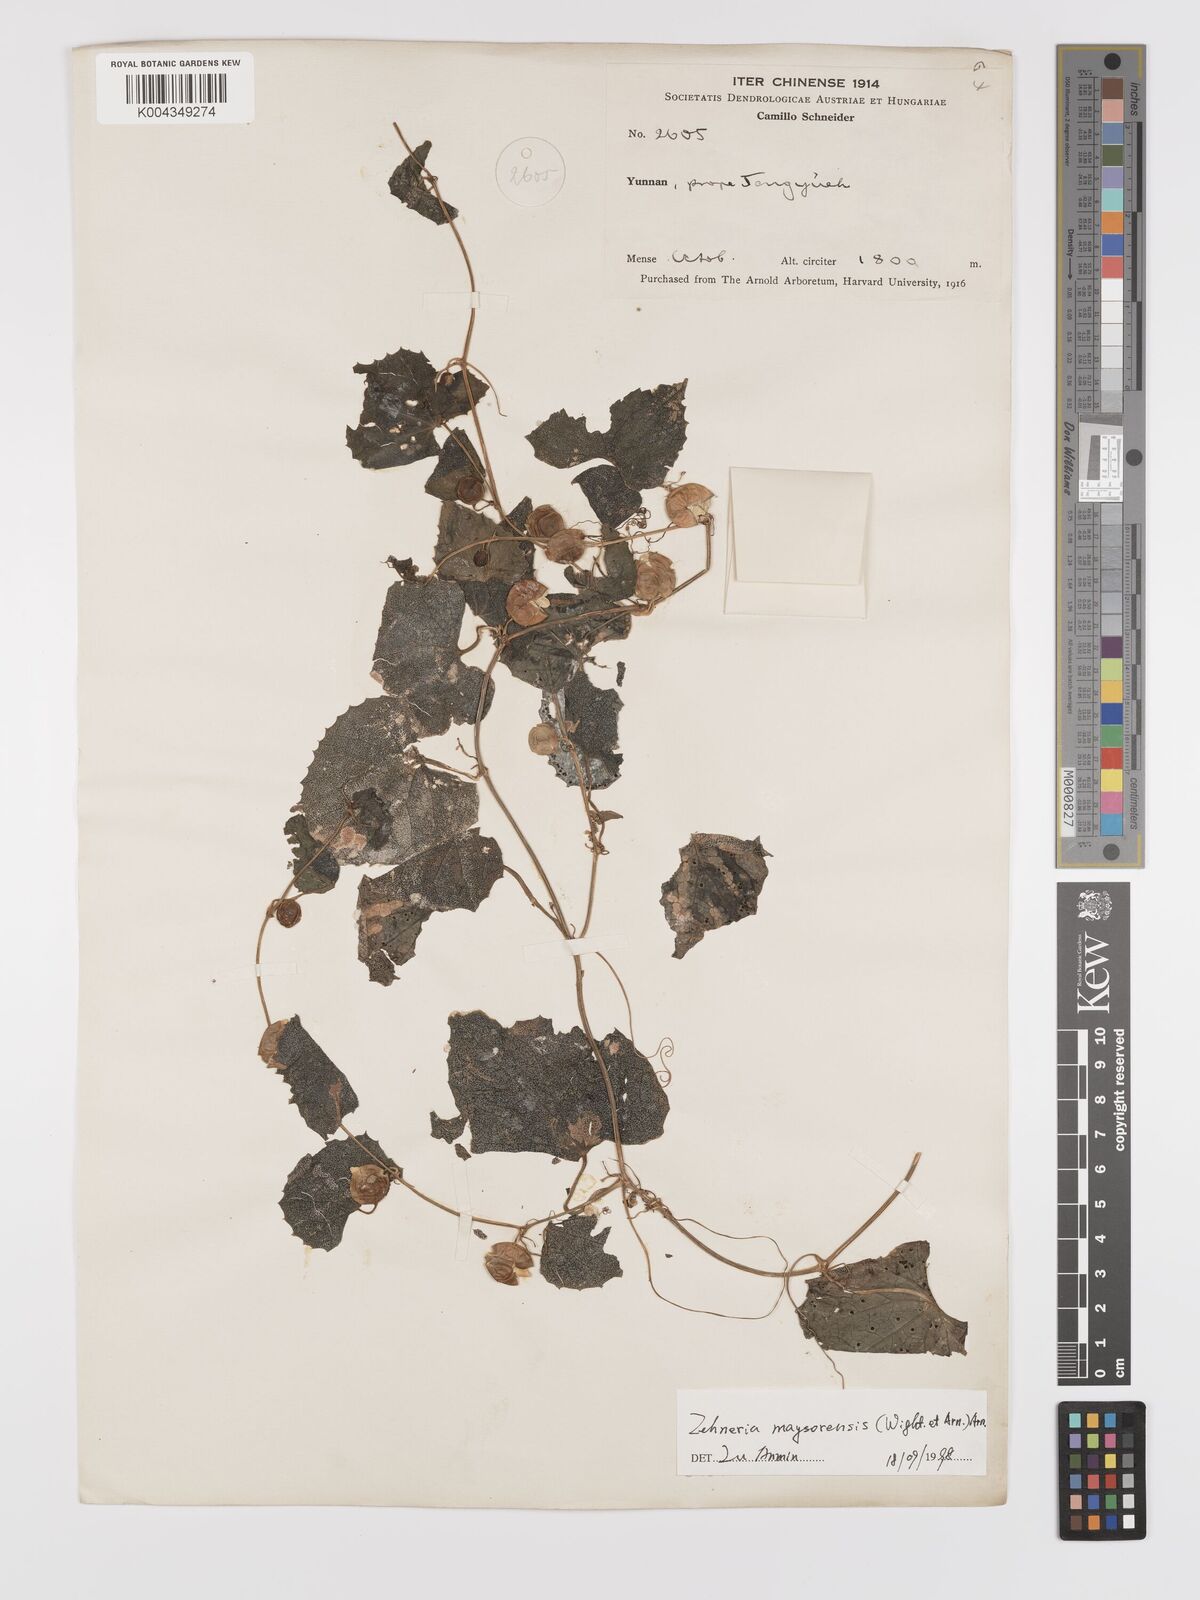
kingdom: Plantae
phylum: Tracheophyta
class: Magnoliopsida
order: Cucurbitales
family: Cucurbitaceae
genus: Zehneria
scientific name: Zehneria maysorensis
